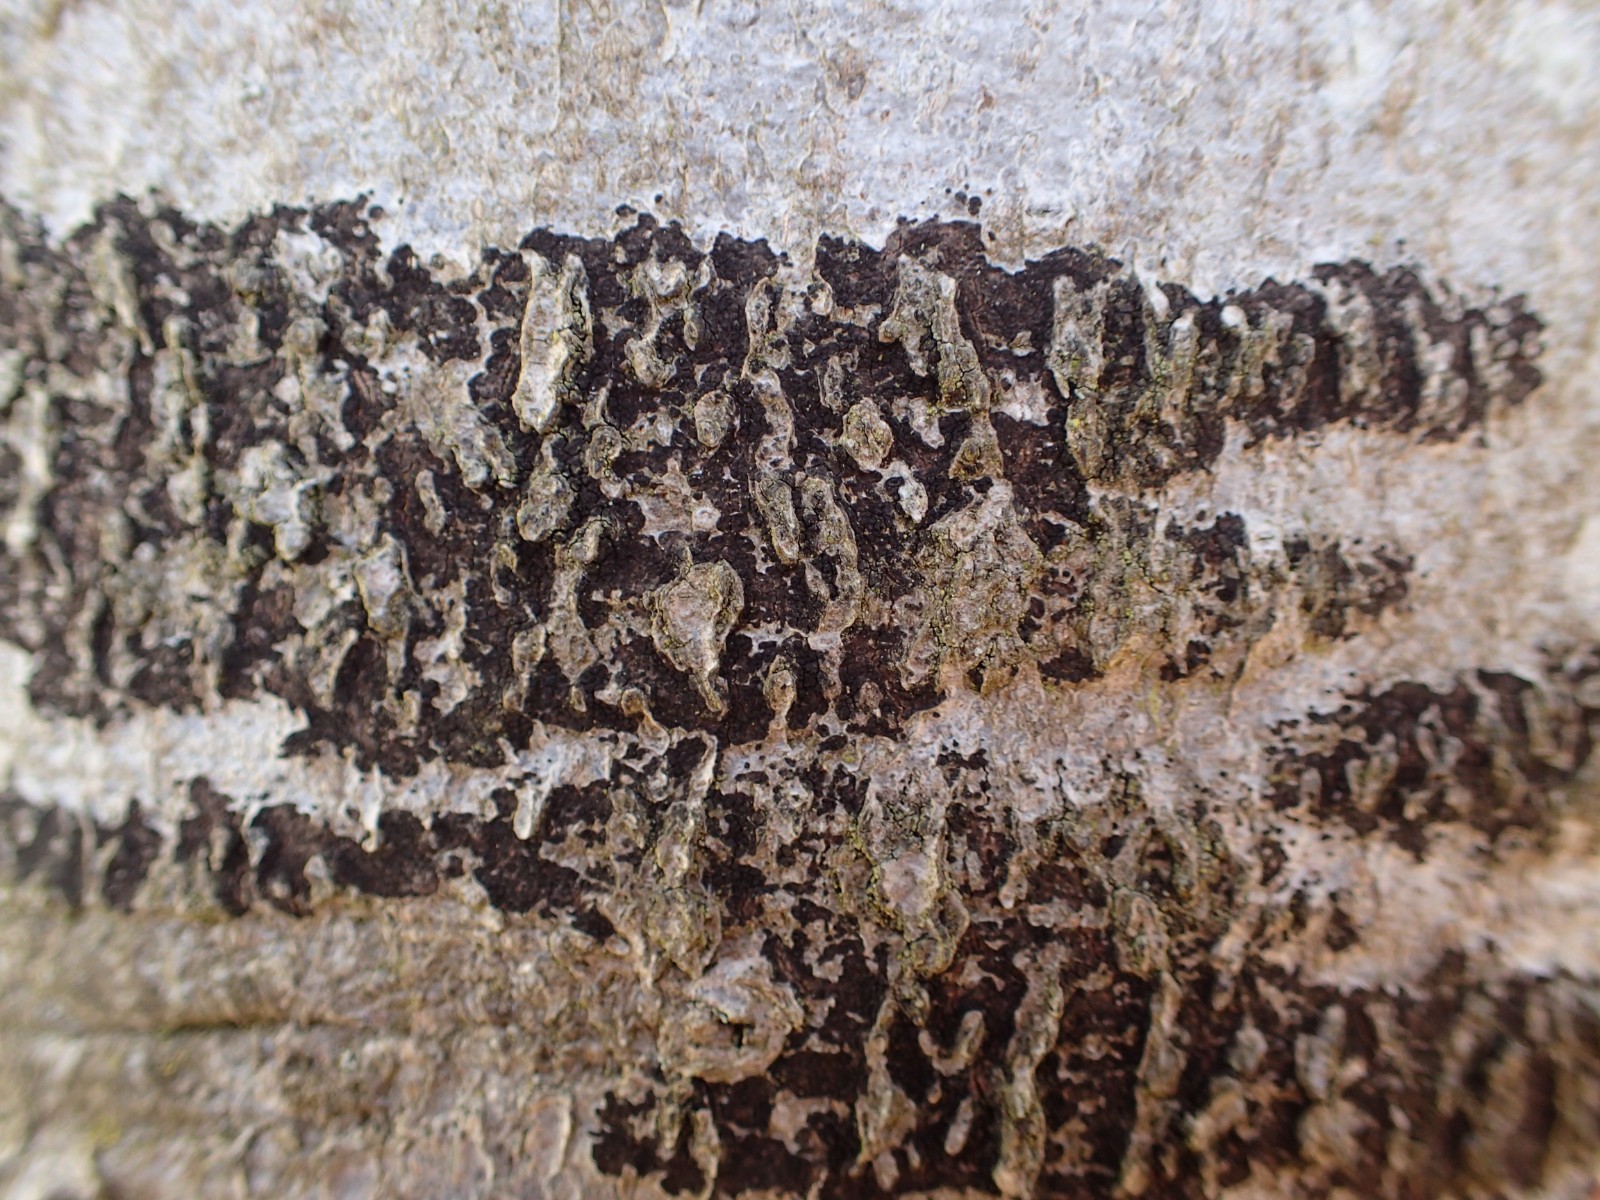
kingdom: Fungi
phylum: Ascomycota
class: Leotiomycetes
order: Rhytismatales
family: Ascodichaenaceae
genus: Ascodichaena
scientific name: Ascodichaena rugosa
